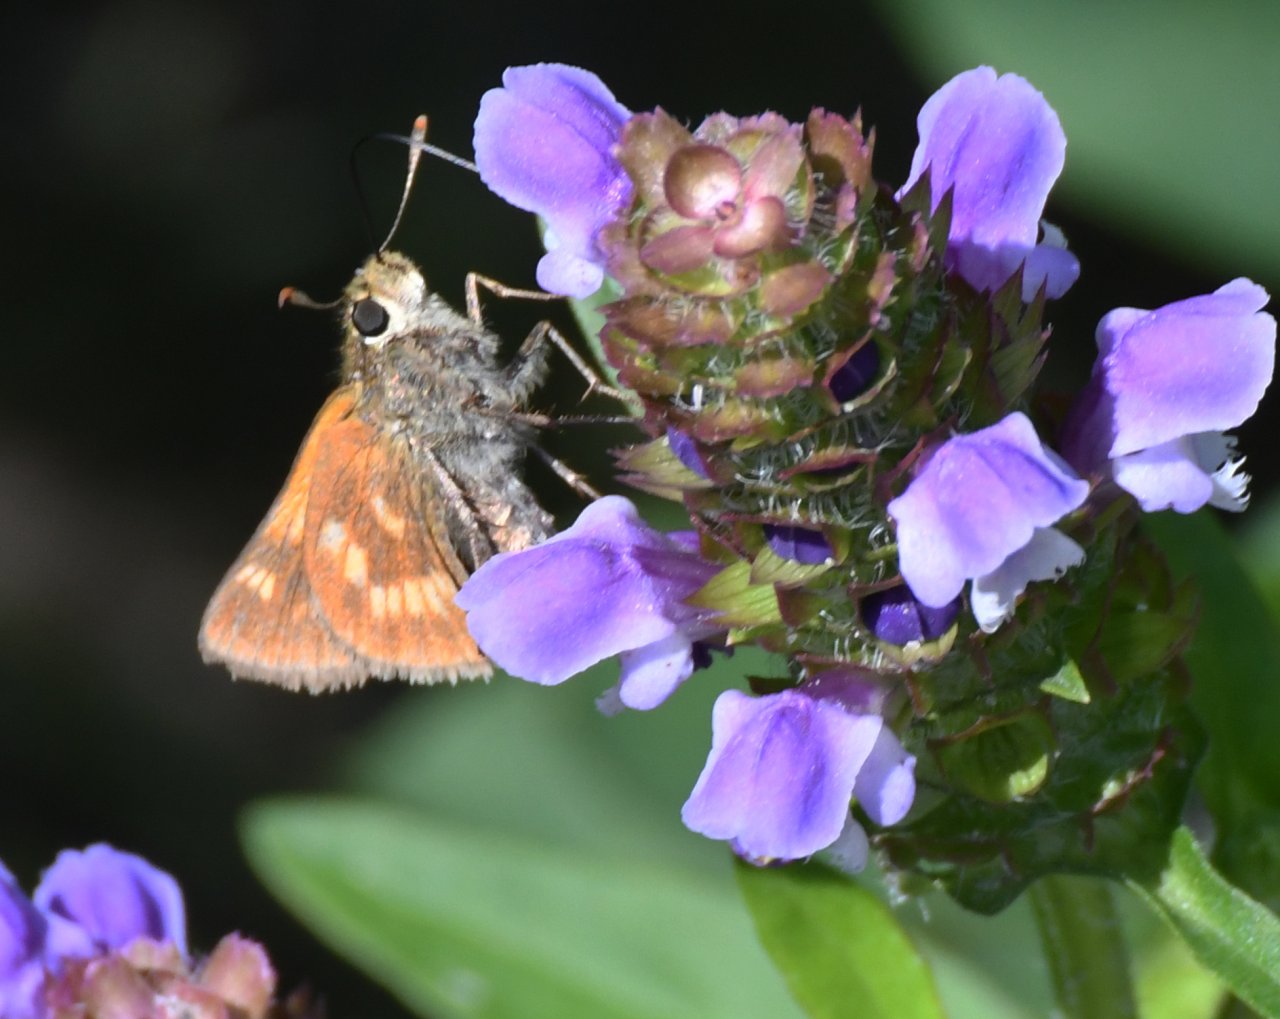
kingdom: Animalia
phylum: Arthropoda
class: Insecta
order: Lepidoptera
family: Hesperiidae
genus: Polites
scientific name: Polites
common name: Long Dash Skipper
